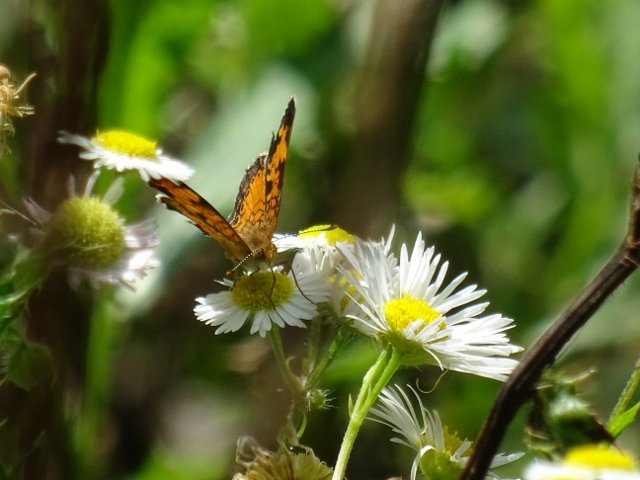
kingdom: Animalia
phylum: Arthropoda
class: Insecta
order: Lepidoptera
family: Nymphalidae
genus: Phyciodes
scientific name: Phyciodes tharos
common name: Northern Crescent
